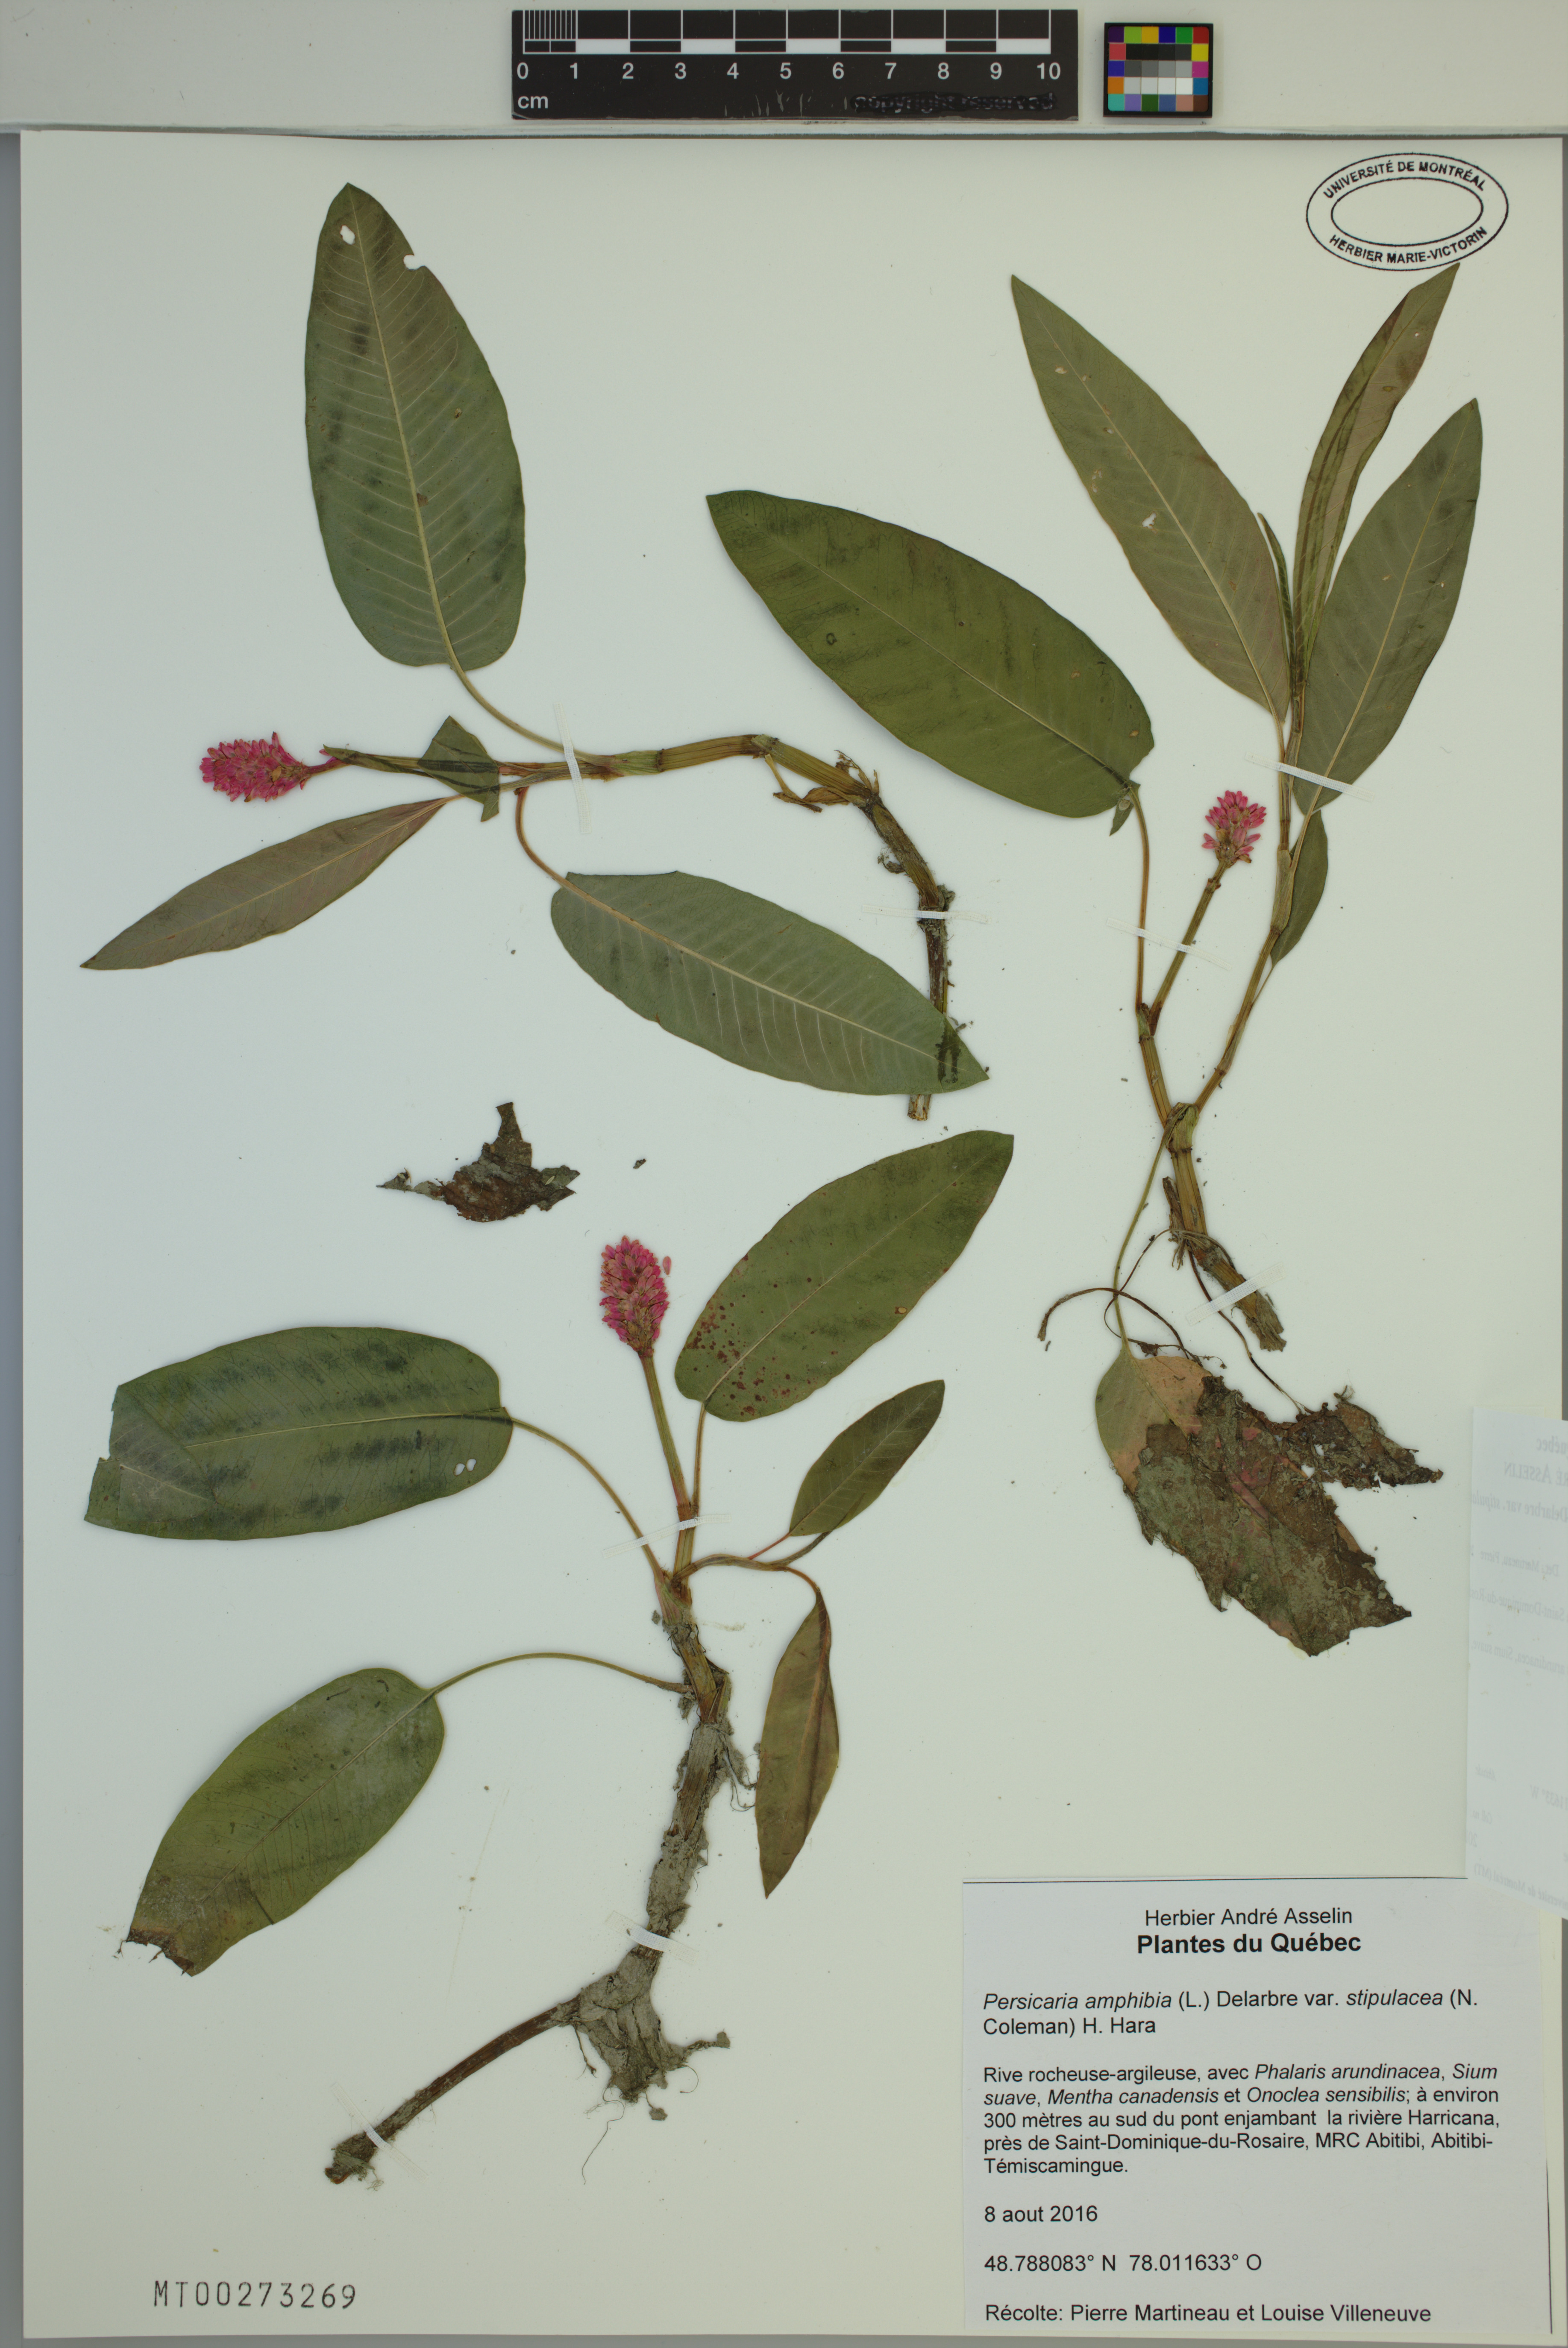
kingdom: Plantae
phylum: Tracheophyta
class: Magnoliopsida
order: Caryophyllales
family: Polygonaceae
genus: Persicaria
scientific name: Persicaria amphibia
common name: Amphibious bistort
